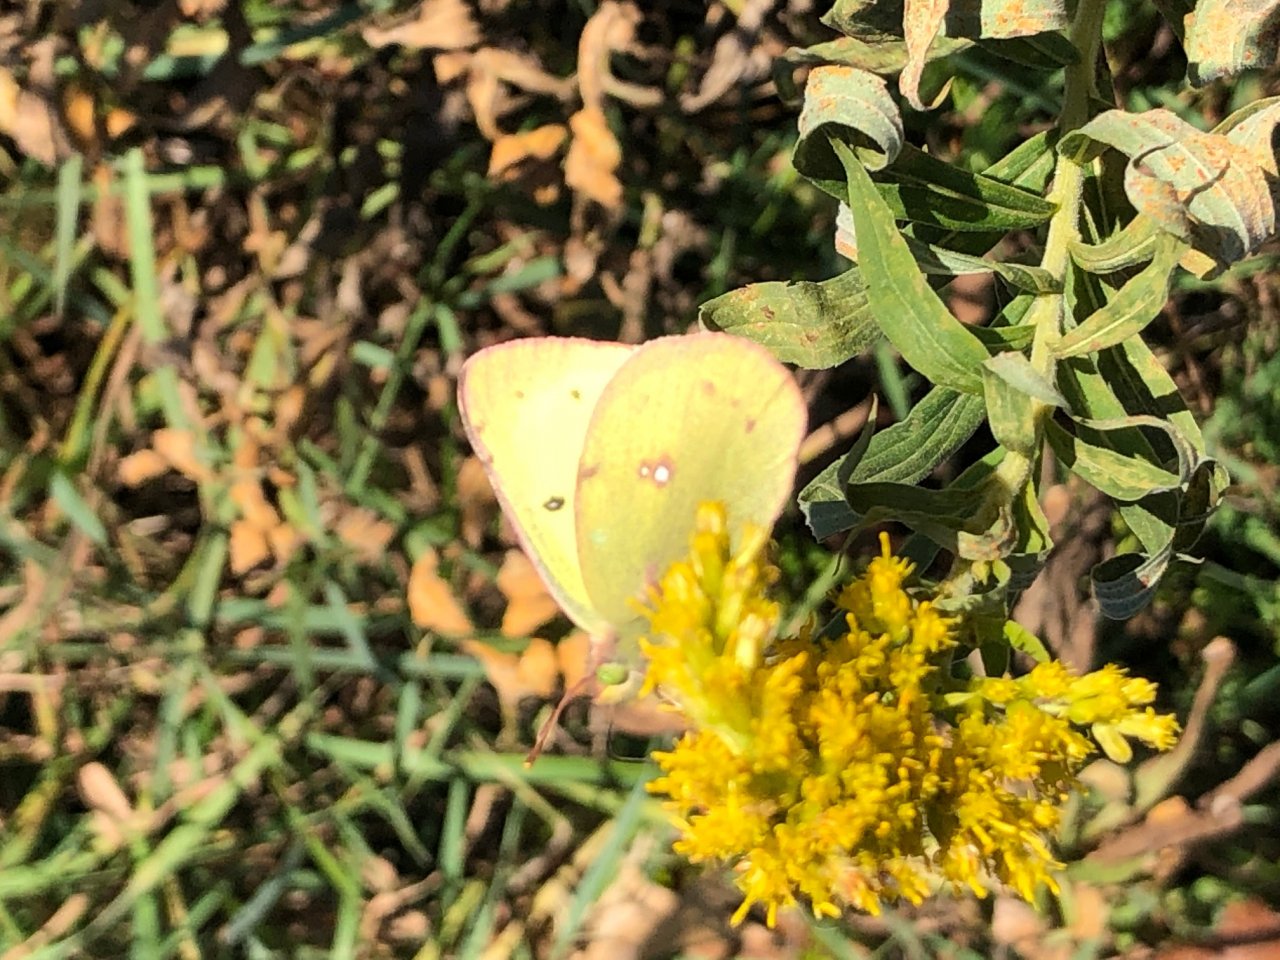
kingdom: Animalia
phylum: Arthropoda
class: Insecta
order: Lepidoptera
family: Pieridae
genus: Colias
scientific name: Colias philodice
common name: Clouded Sulphur
